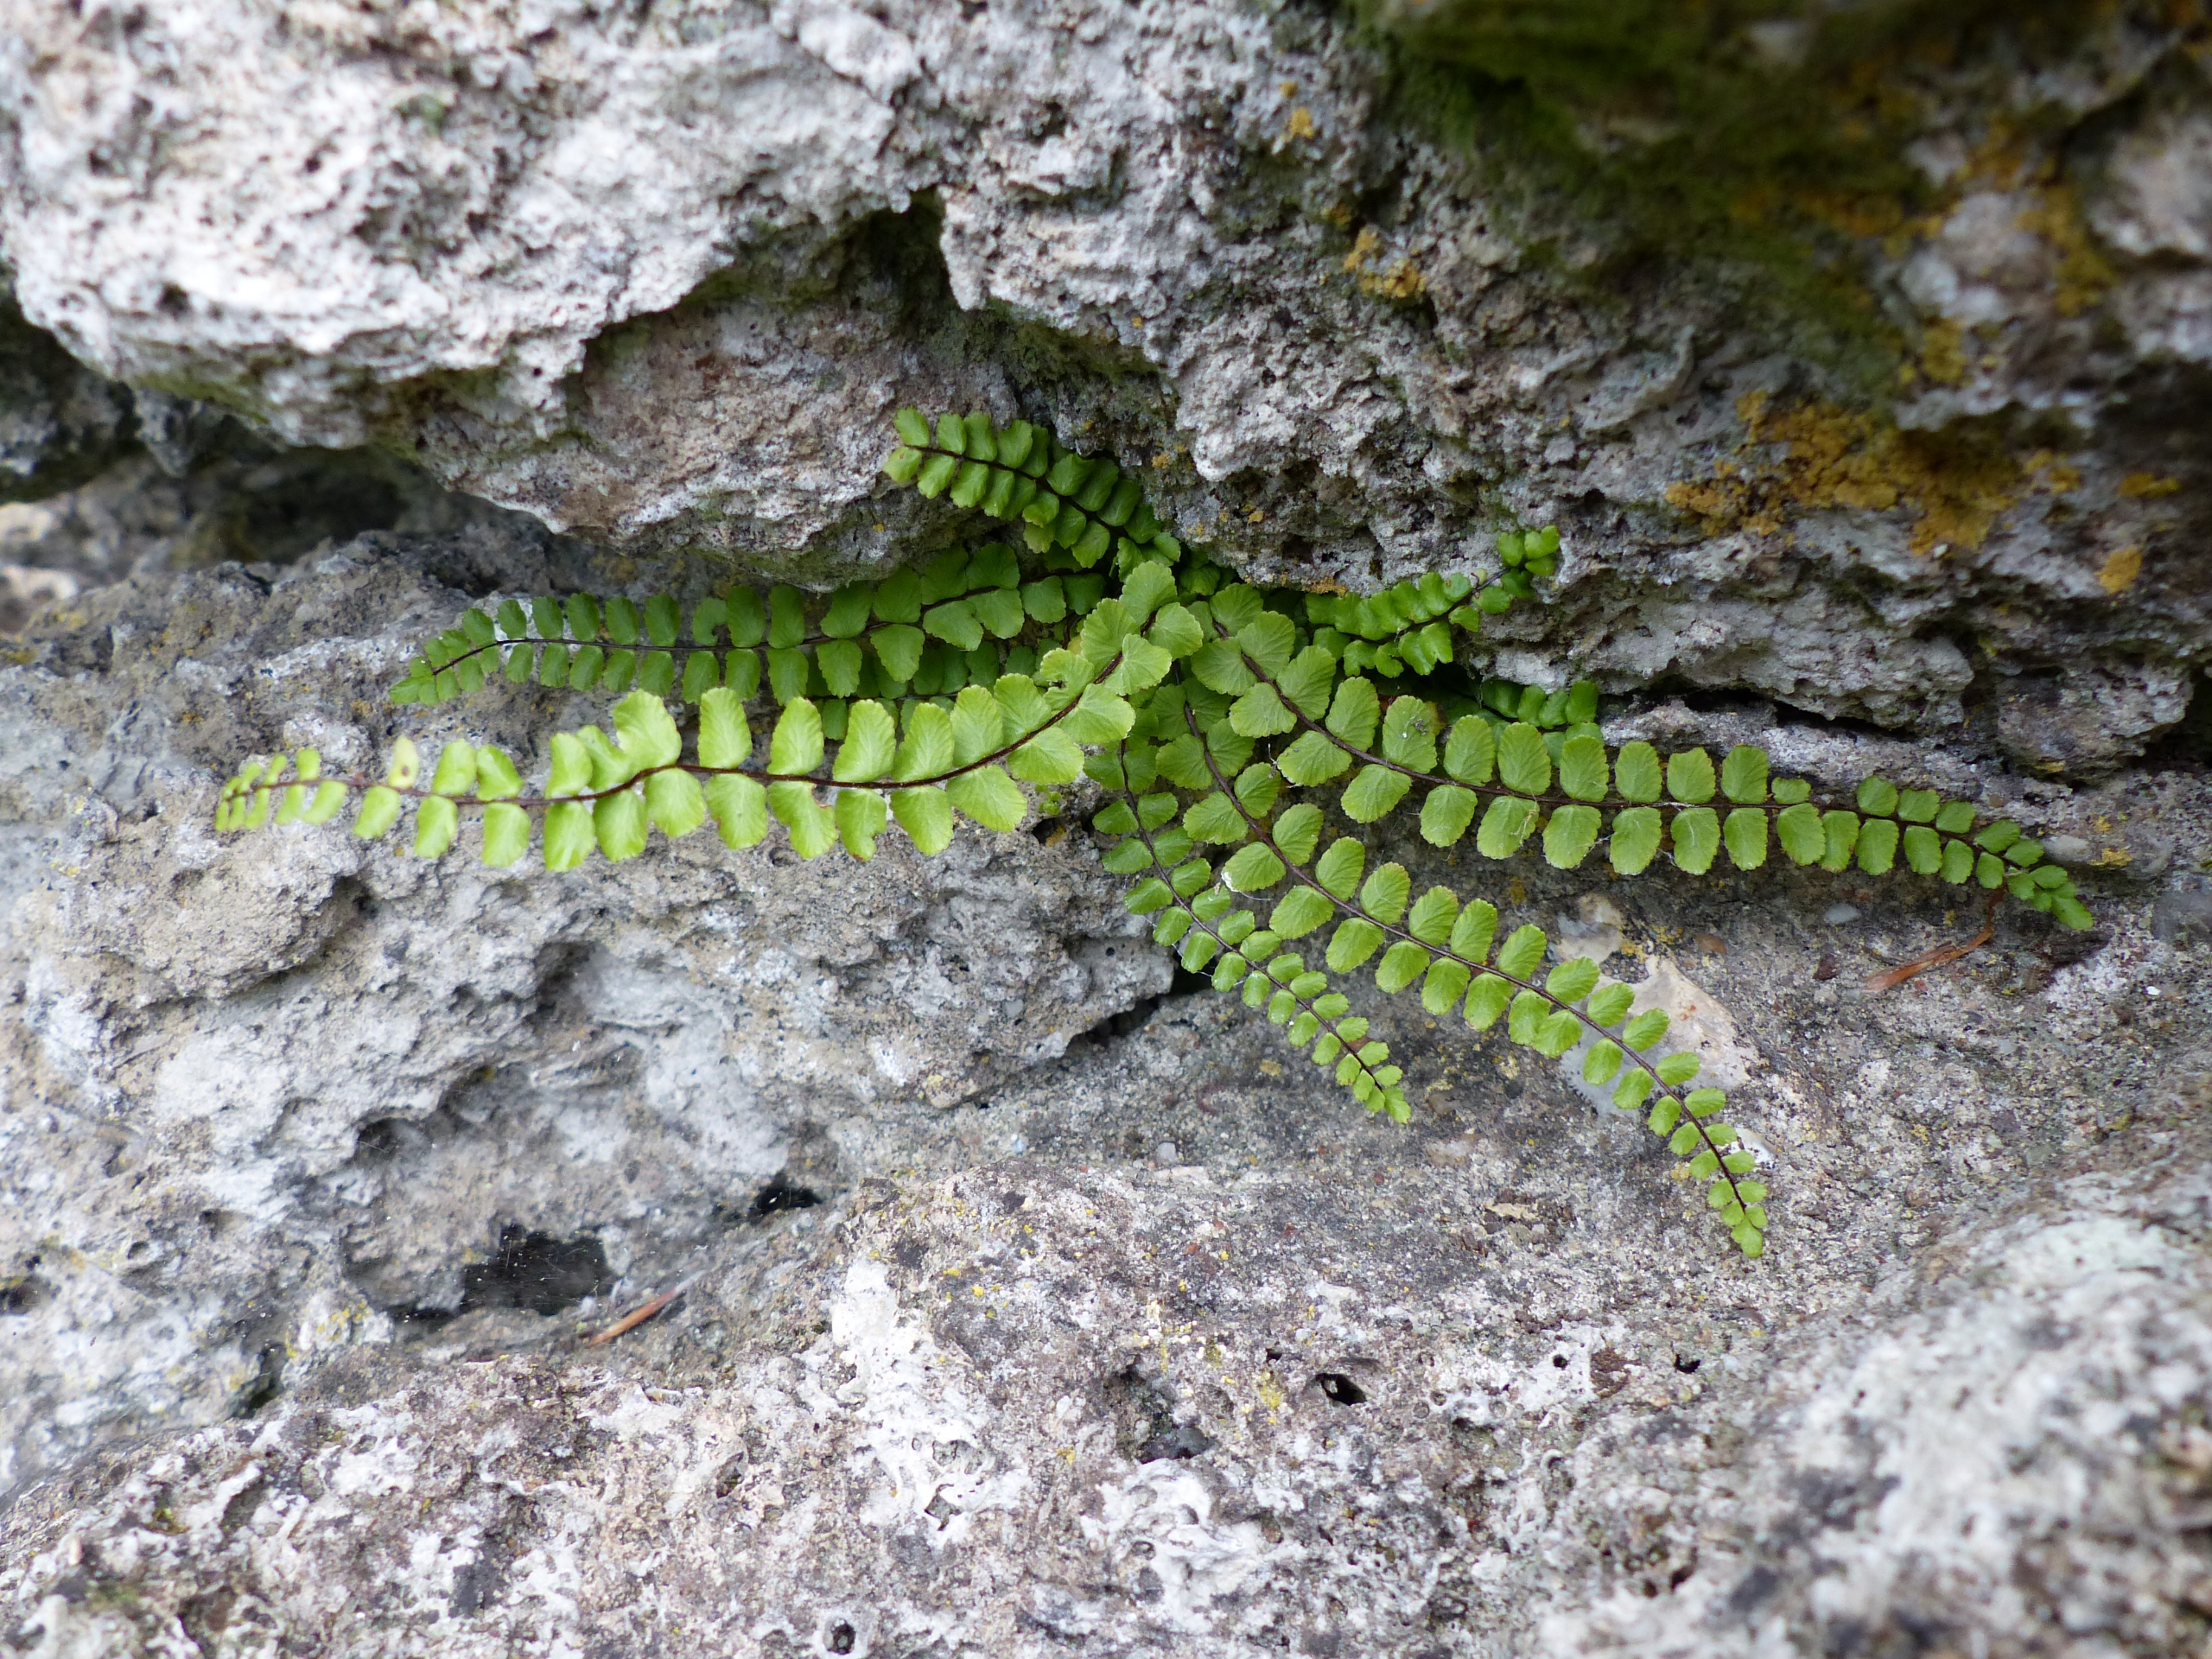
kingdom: Plantae
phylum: Tracheophyta
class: Polypodiopsida
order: Polypodiales
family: Aspleniaceae
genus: Asplenium
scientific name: Asplenium trichomanes
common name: Rundfinnet radeløv
